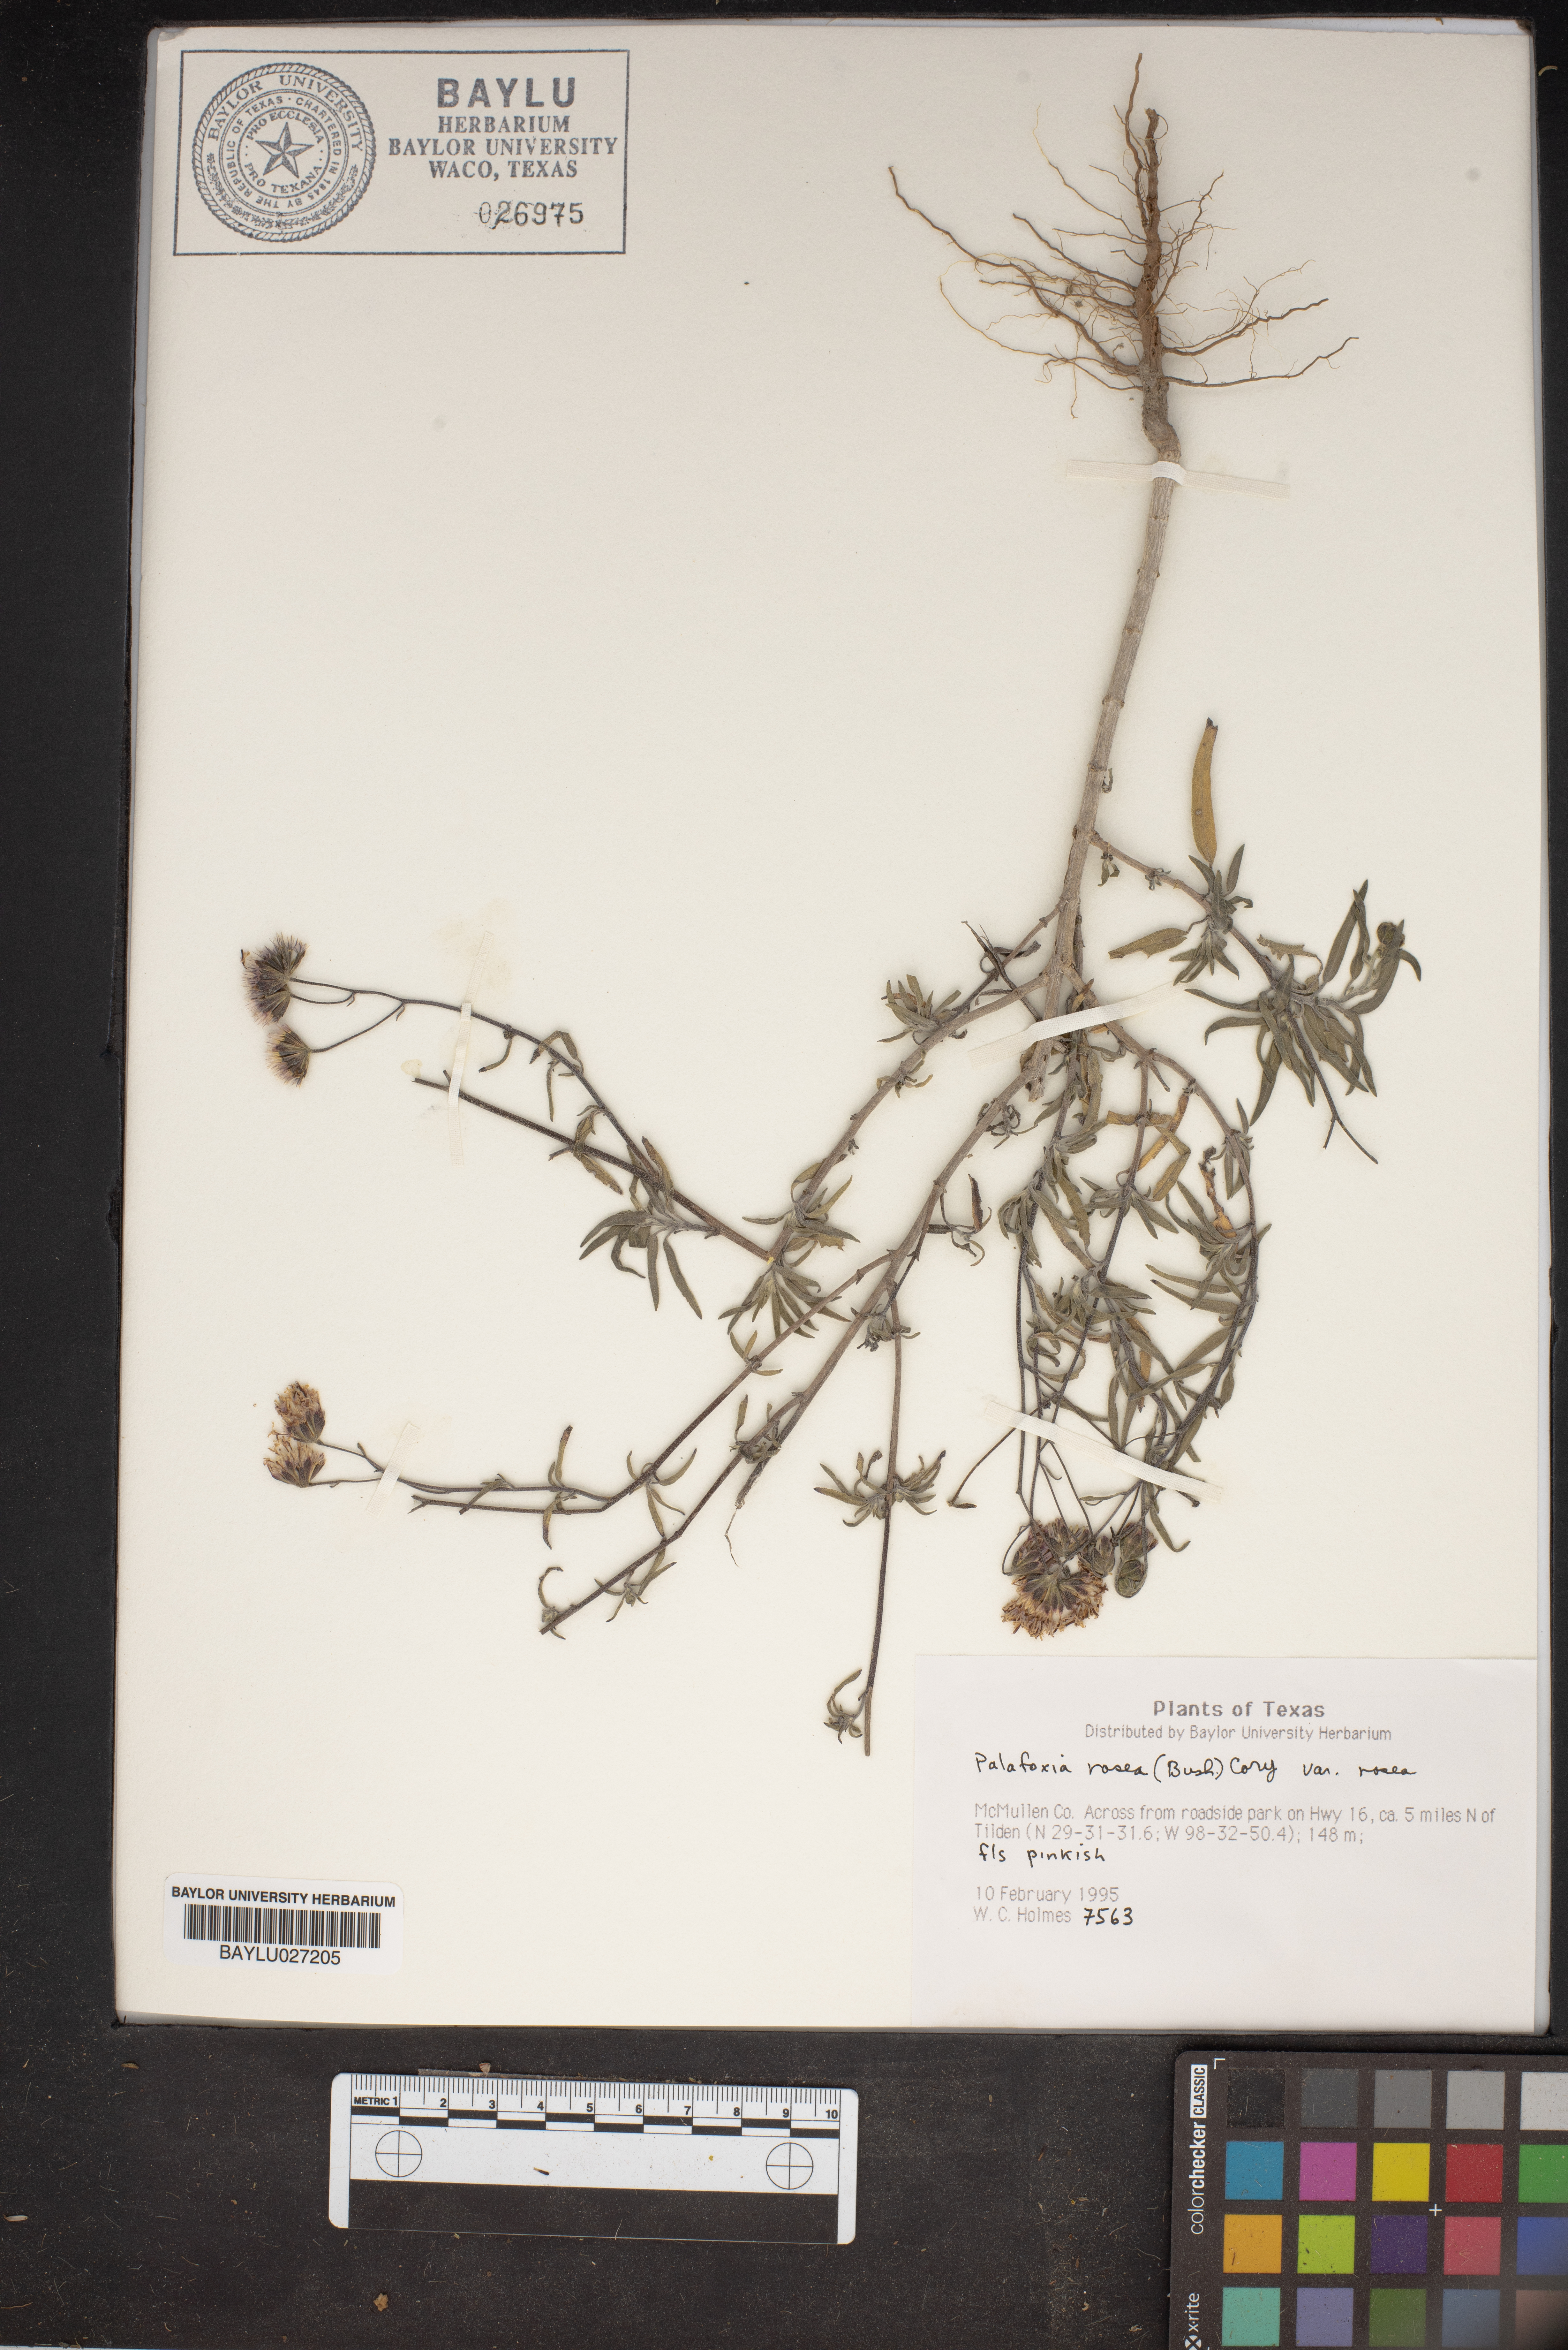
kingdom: Plantae
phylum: Tracheophyta
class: Magnoliopsida
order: Asterales
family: Asteraceae
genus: Palafoxia
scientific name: Palafoxia rosea
